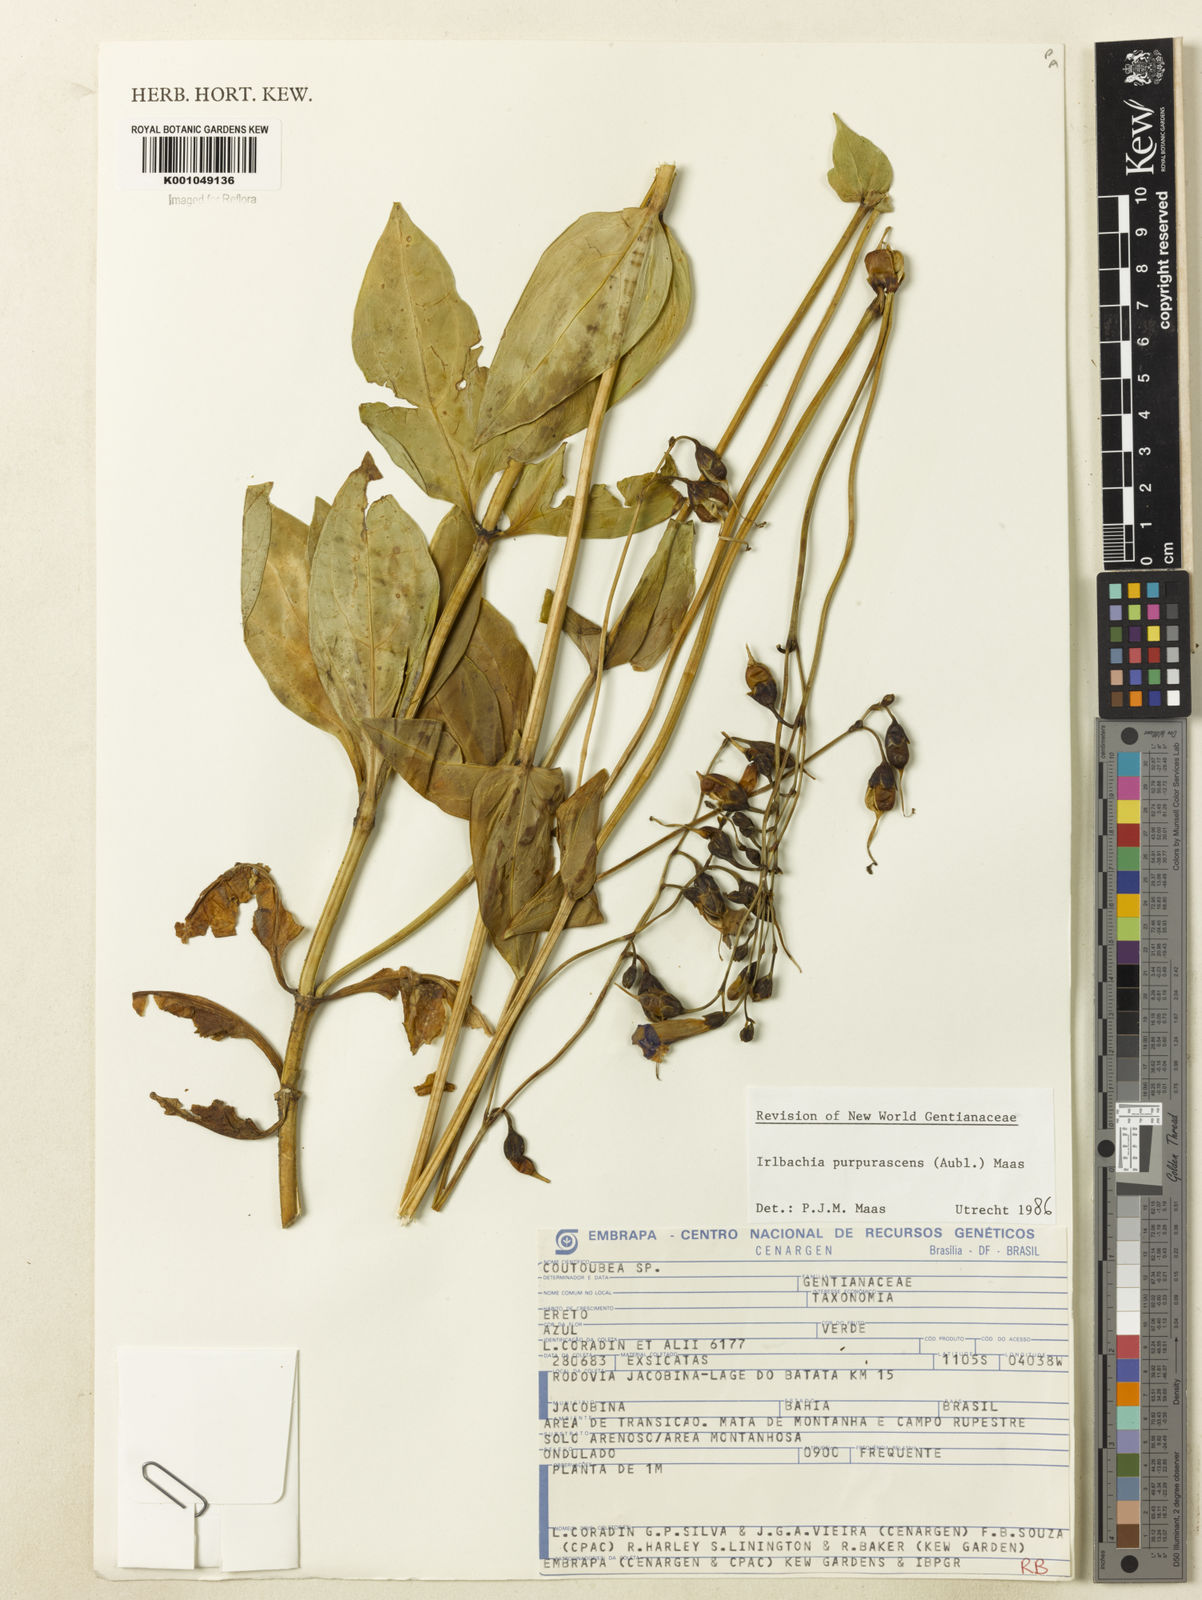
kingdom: Plantae
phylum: Tracheophyta
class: Magnoliopsida
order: Gentianales
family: Gentianaceae
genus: Chelonanthus
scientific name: Chelonanthus purpurascens
